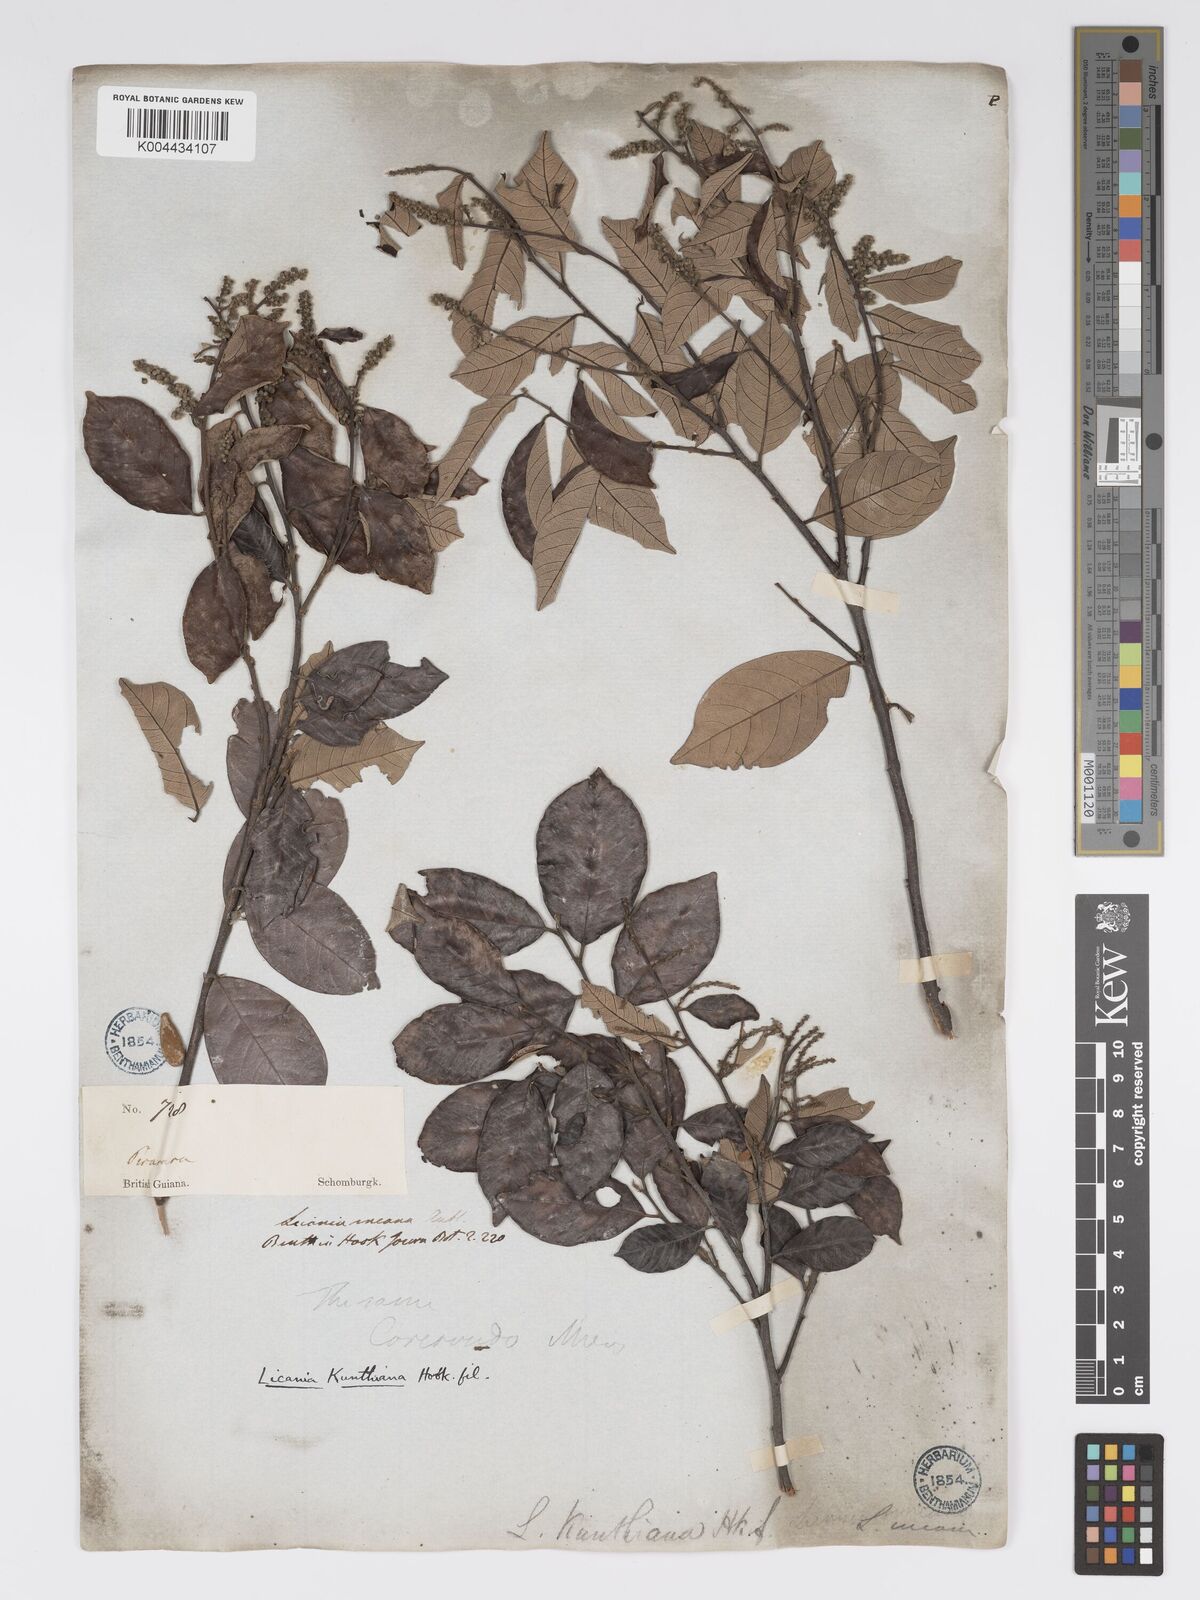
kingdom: Plantae
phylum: Tracheophyta
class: Magnoliopsida
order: Malpighiales
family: Chrysobalanaceae
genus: Licania
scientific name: Licania kunthiana
